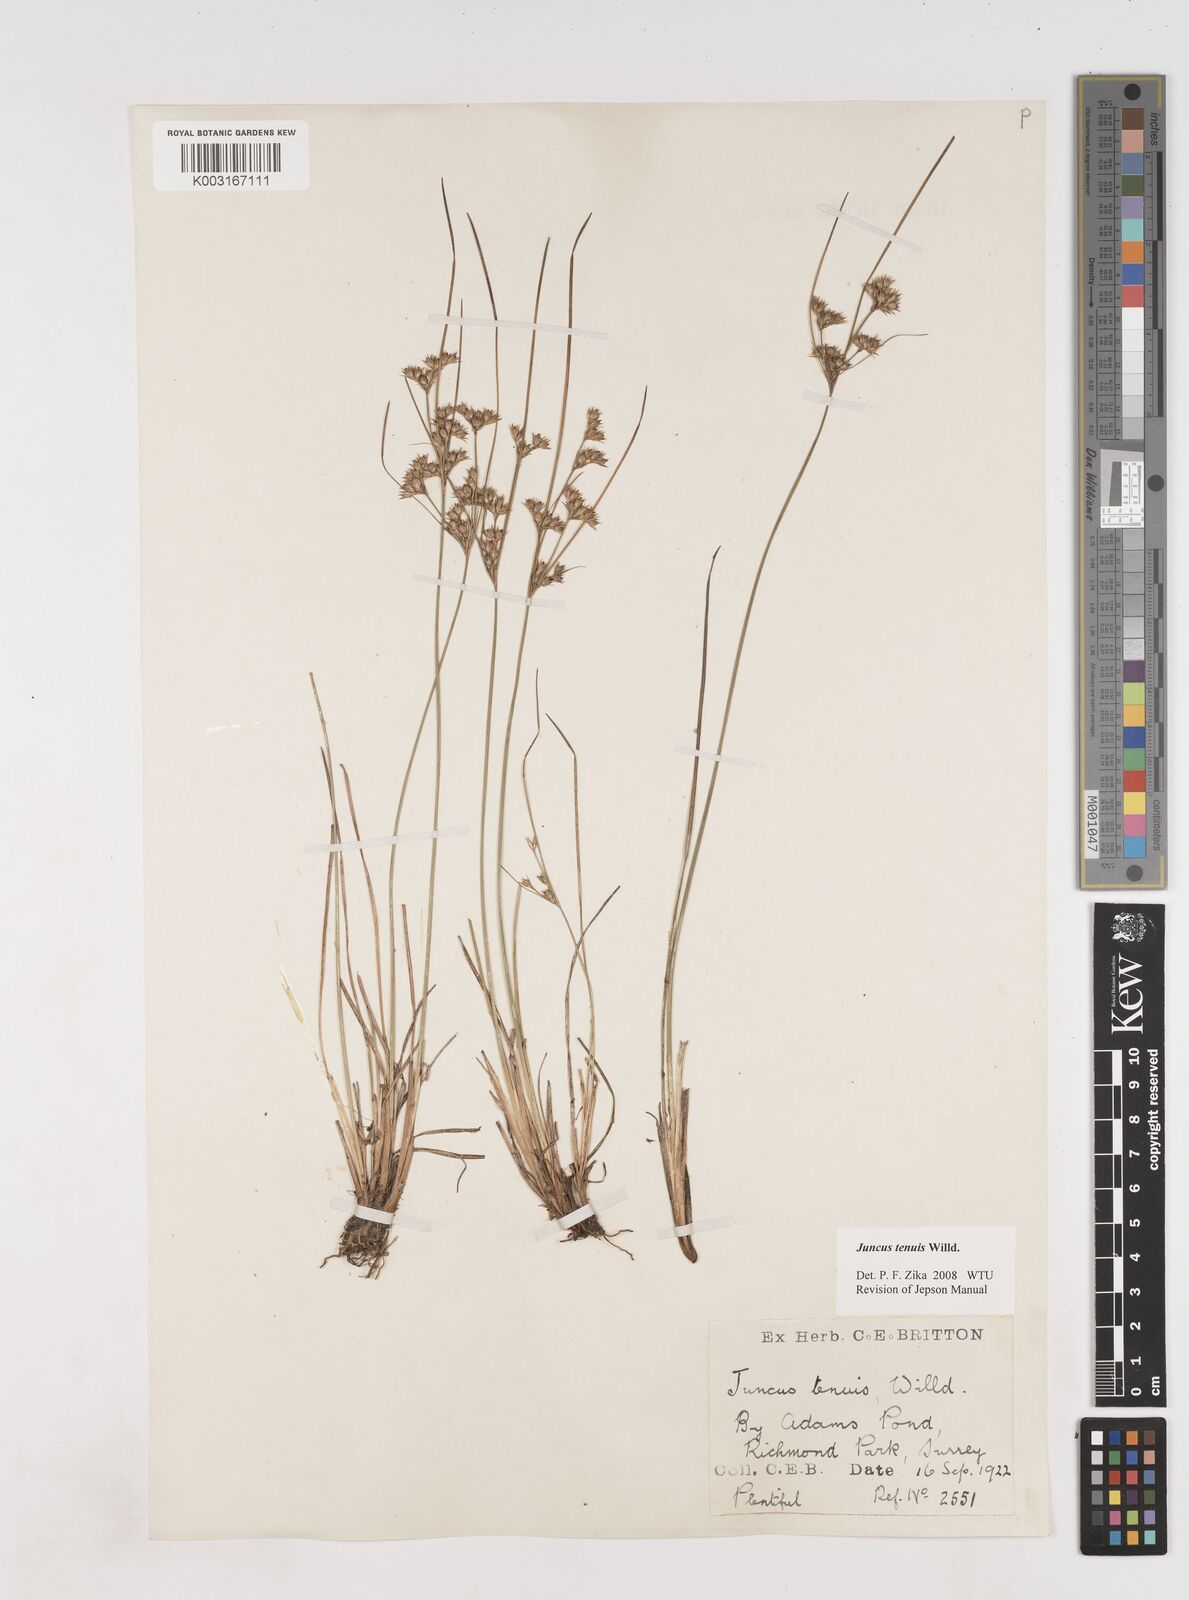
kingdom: Plantae
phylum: Tracheophyta
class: Liliopsida
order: Poales
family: Juncaceae
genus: Juncus
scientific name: Juncus occidentalis
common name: Western rush
